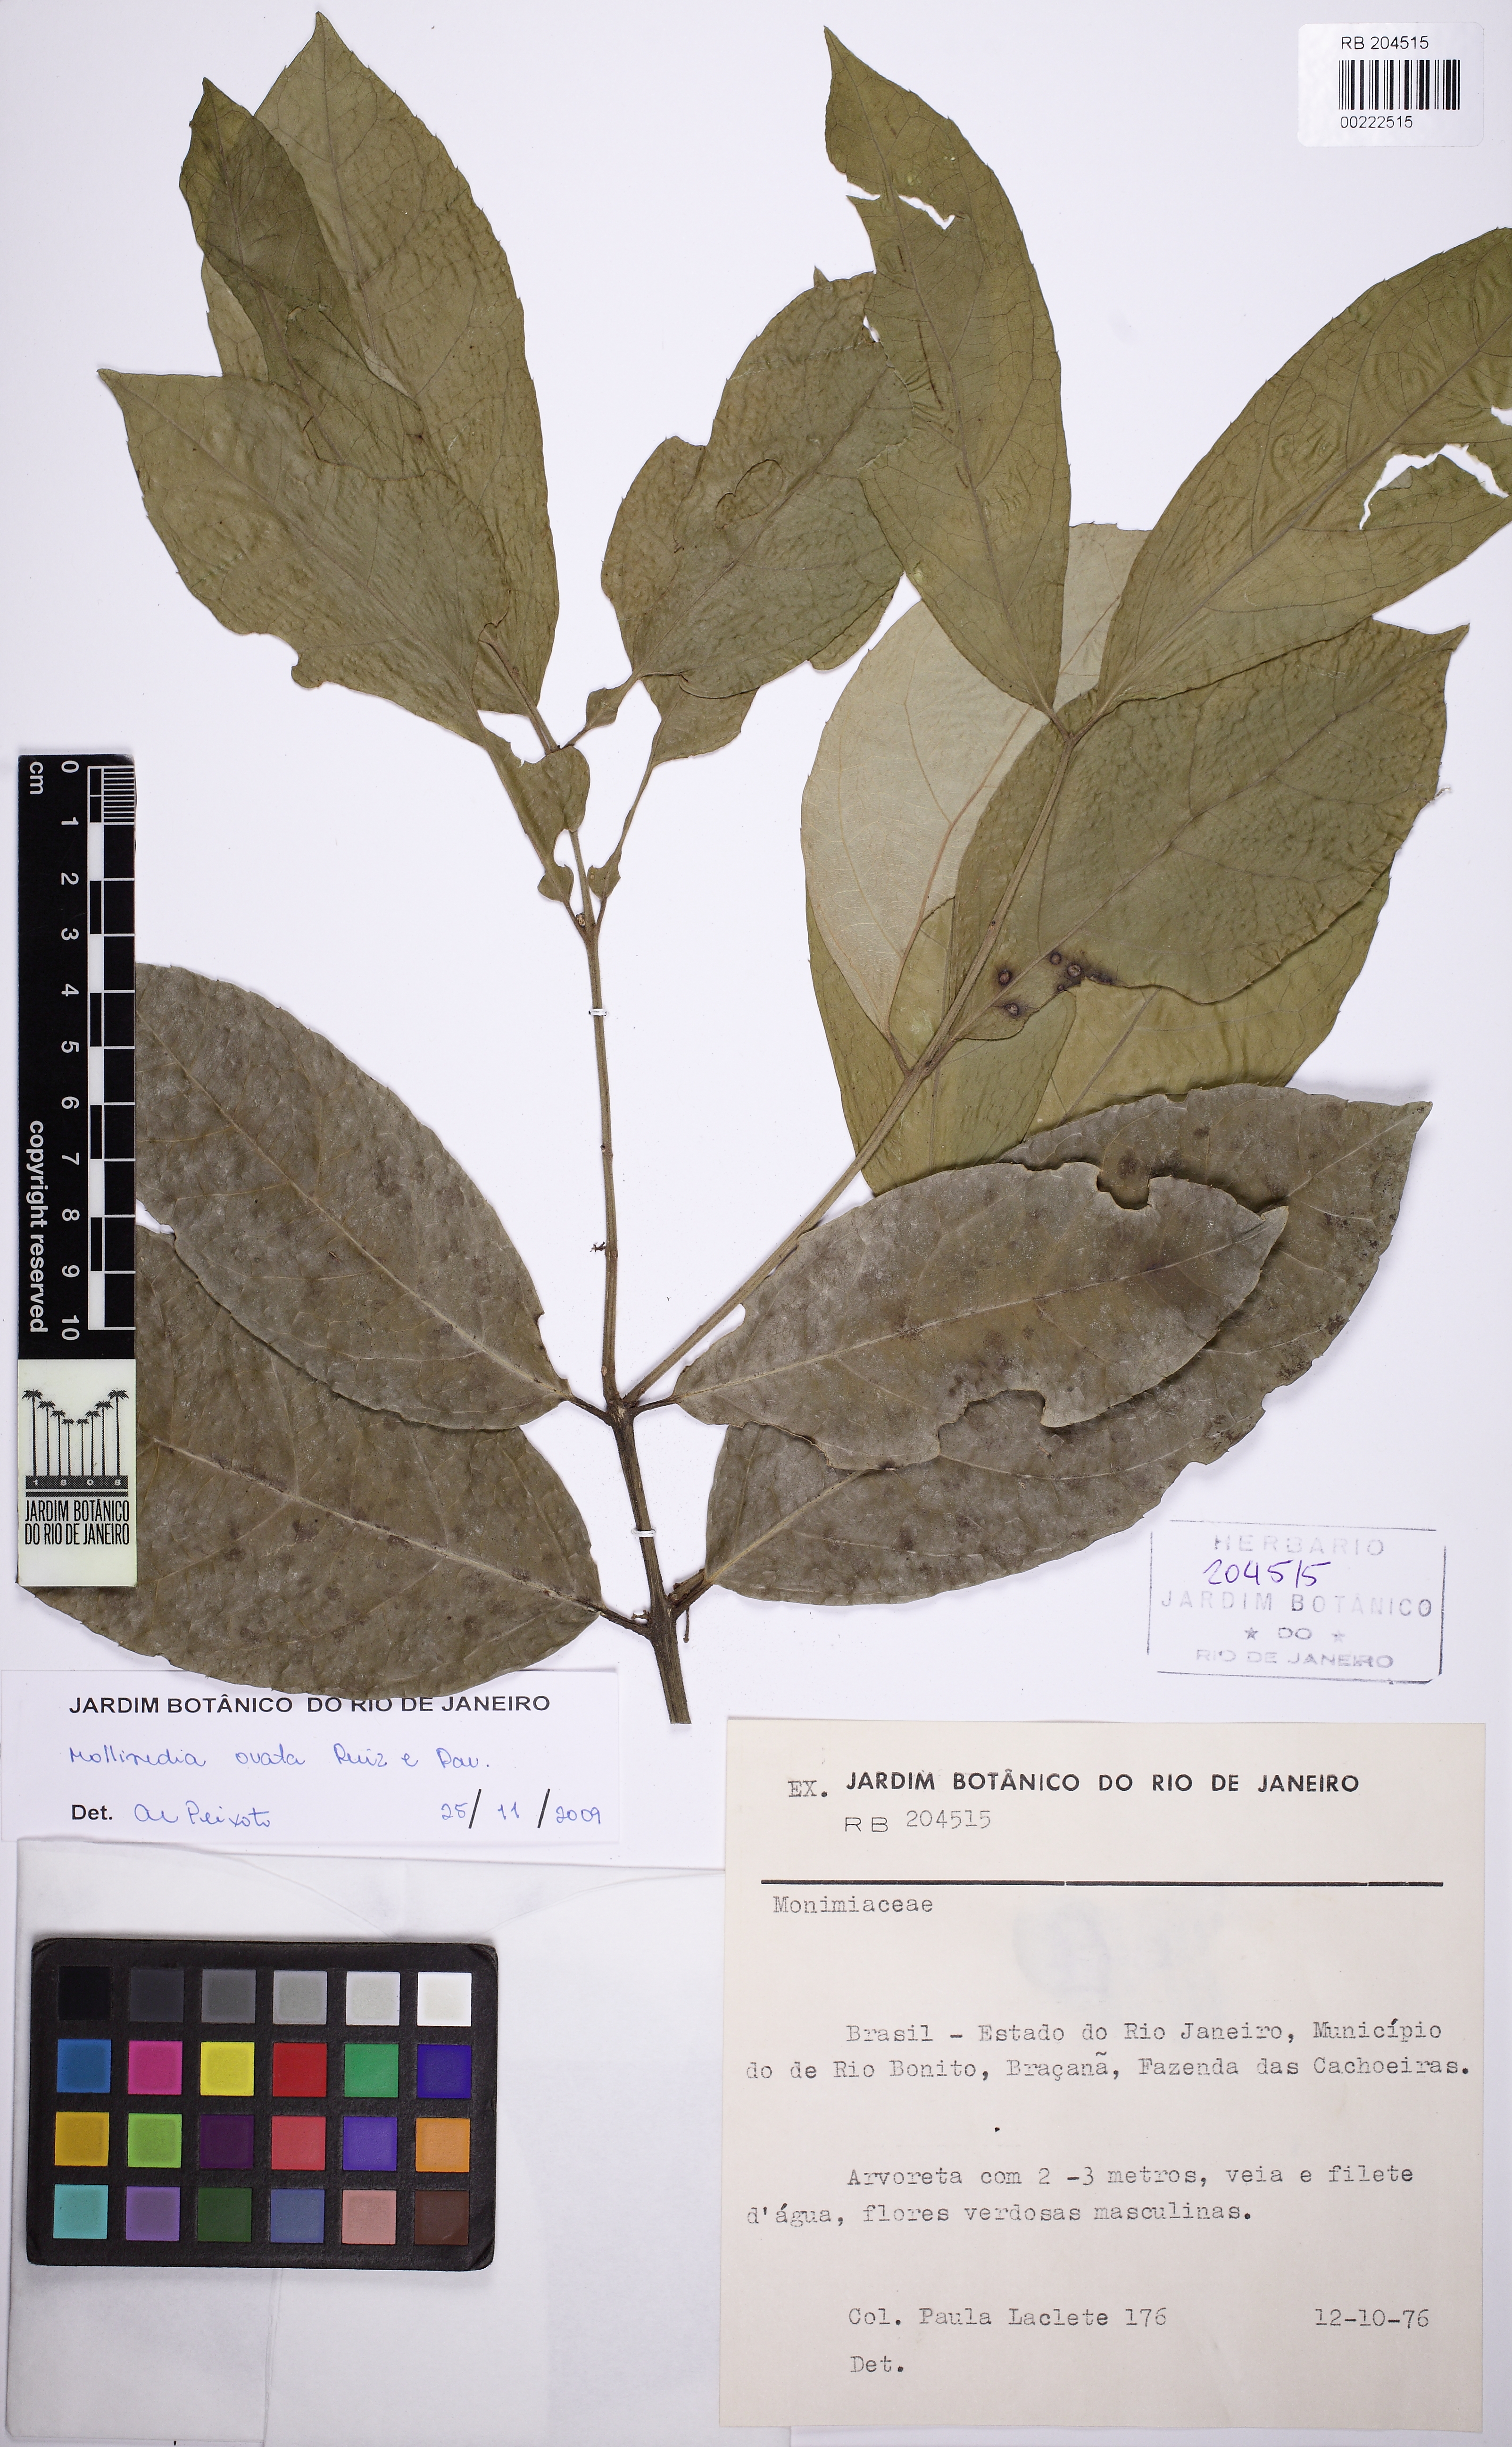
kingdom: Plantae
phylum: Tracheophyta
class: Magnoliopsida
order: Laurales
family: Monimiaceae
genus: Mollinedia
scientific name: Mollinedia ovata
